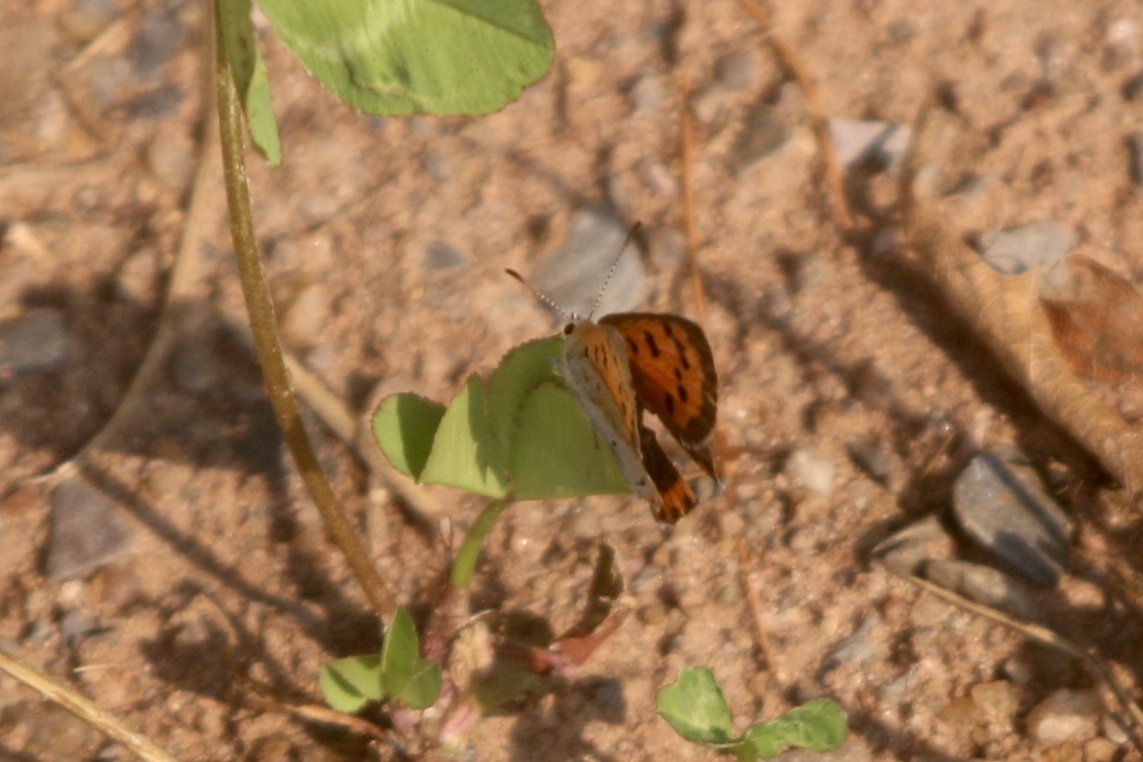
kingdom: Animalia
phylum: Arthropoda
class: Insecta
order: Lepidoptera
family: Lycaenidae
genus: Lycaena
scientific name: Lycaena phlaeas
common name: American Copper
